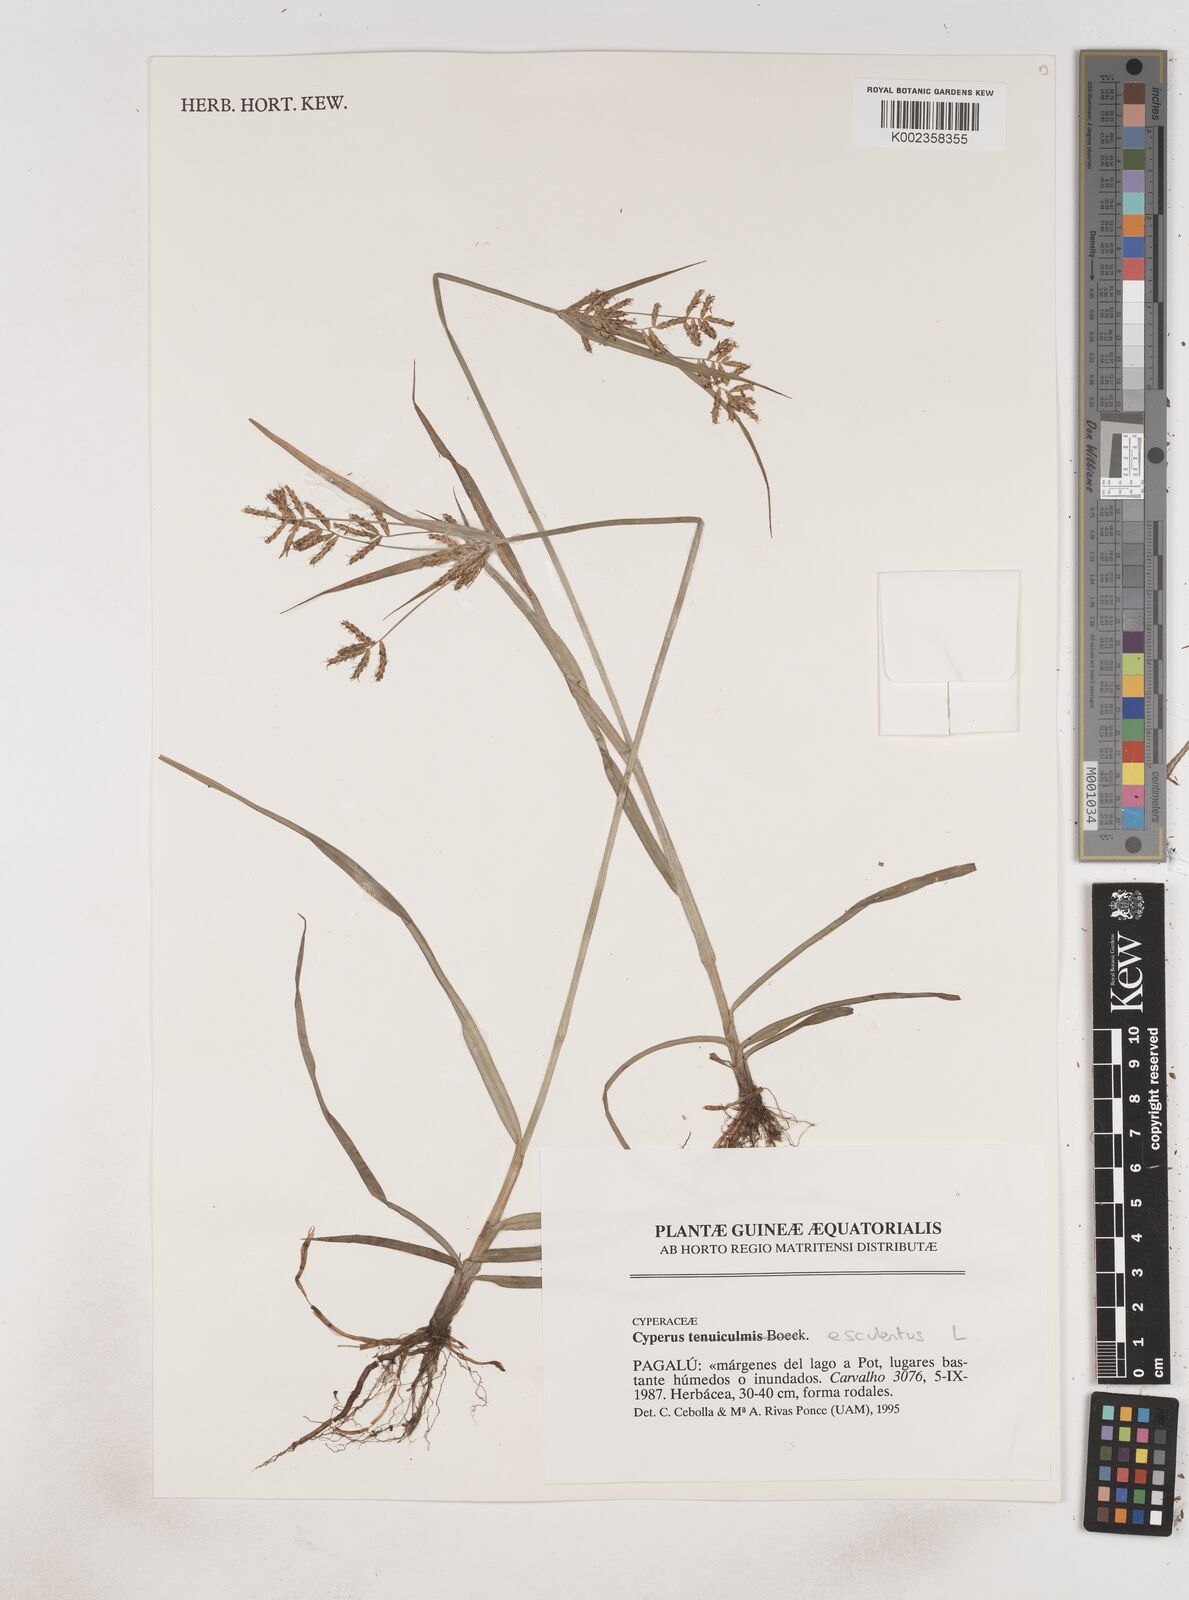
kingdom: Plantae
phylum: Tracheophyta
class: Liliopsida
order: Poales
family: Cyperaceae
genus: Cyperus
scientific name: Cyperus esculentus
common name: Yellow nutsedge
